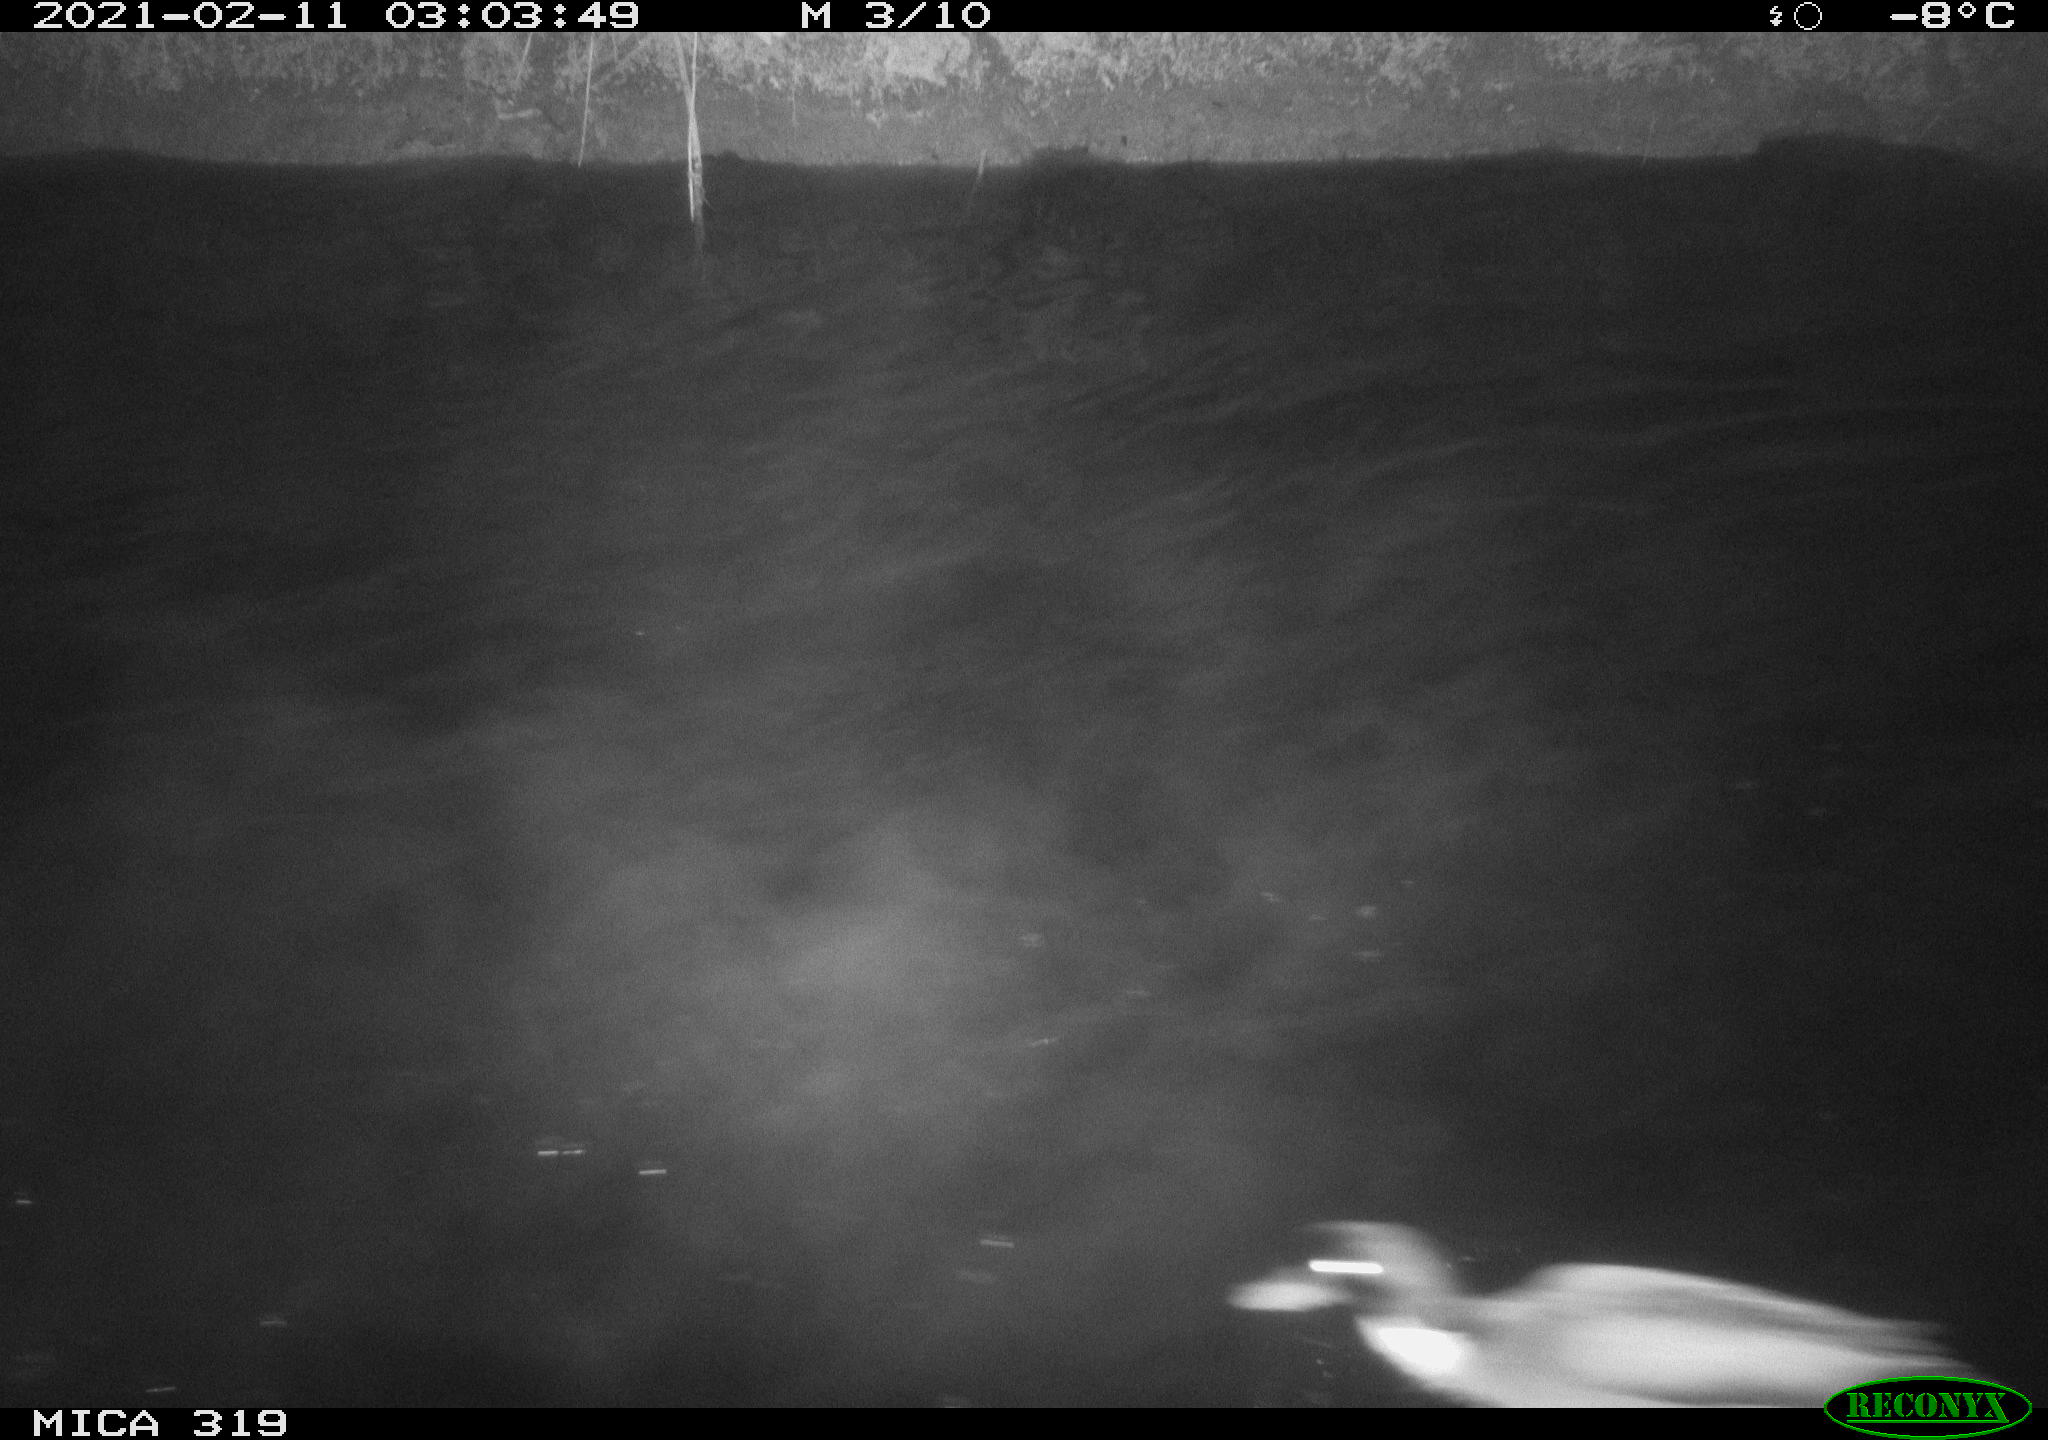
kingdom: Animalia
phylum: Chordata
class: Aves
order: Anseriformes
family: Anatidae
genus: Anas
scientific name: Anas platyrhynchos
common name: Mallard
